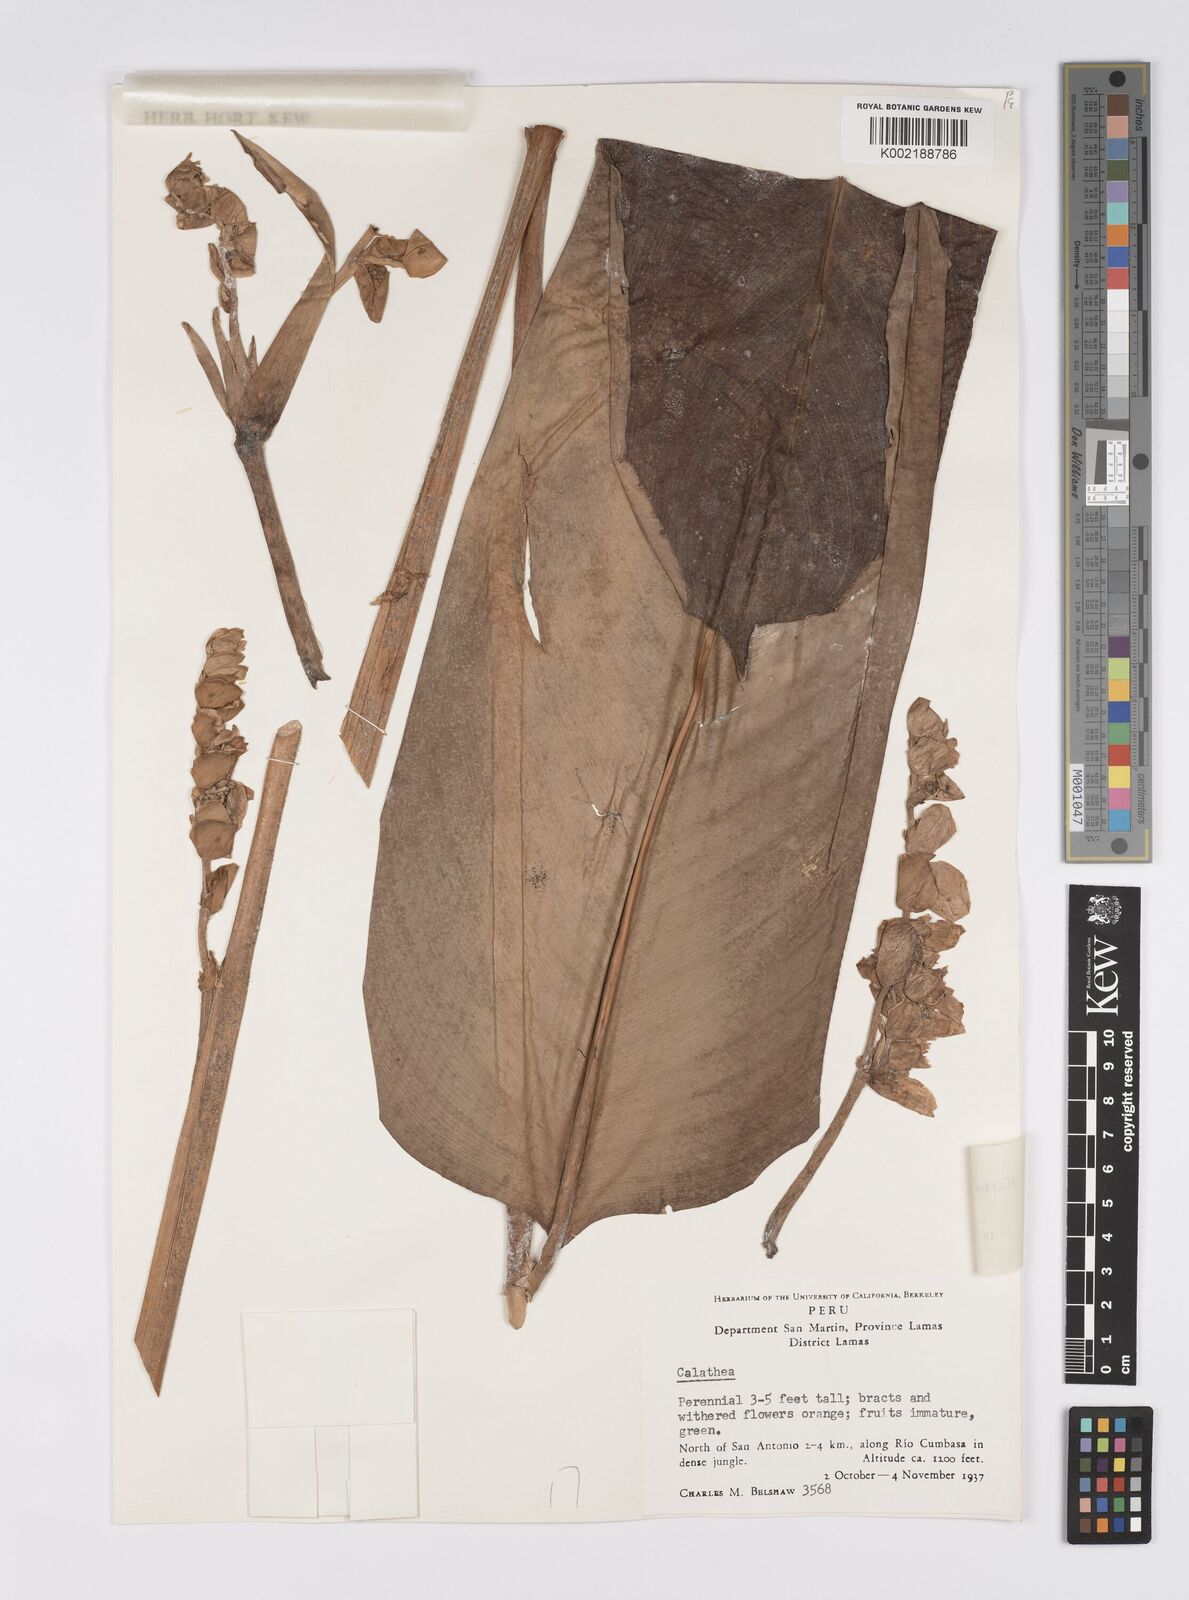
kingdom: Plantae
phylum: Tracheophyta
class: Liliopsida
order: Zingiberales
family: Marantaceae
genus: Stromanthe
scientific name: Stromanthe stromanthoides
